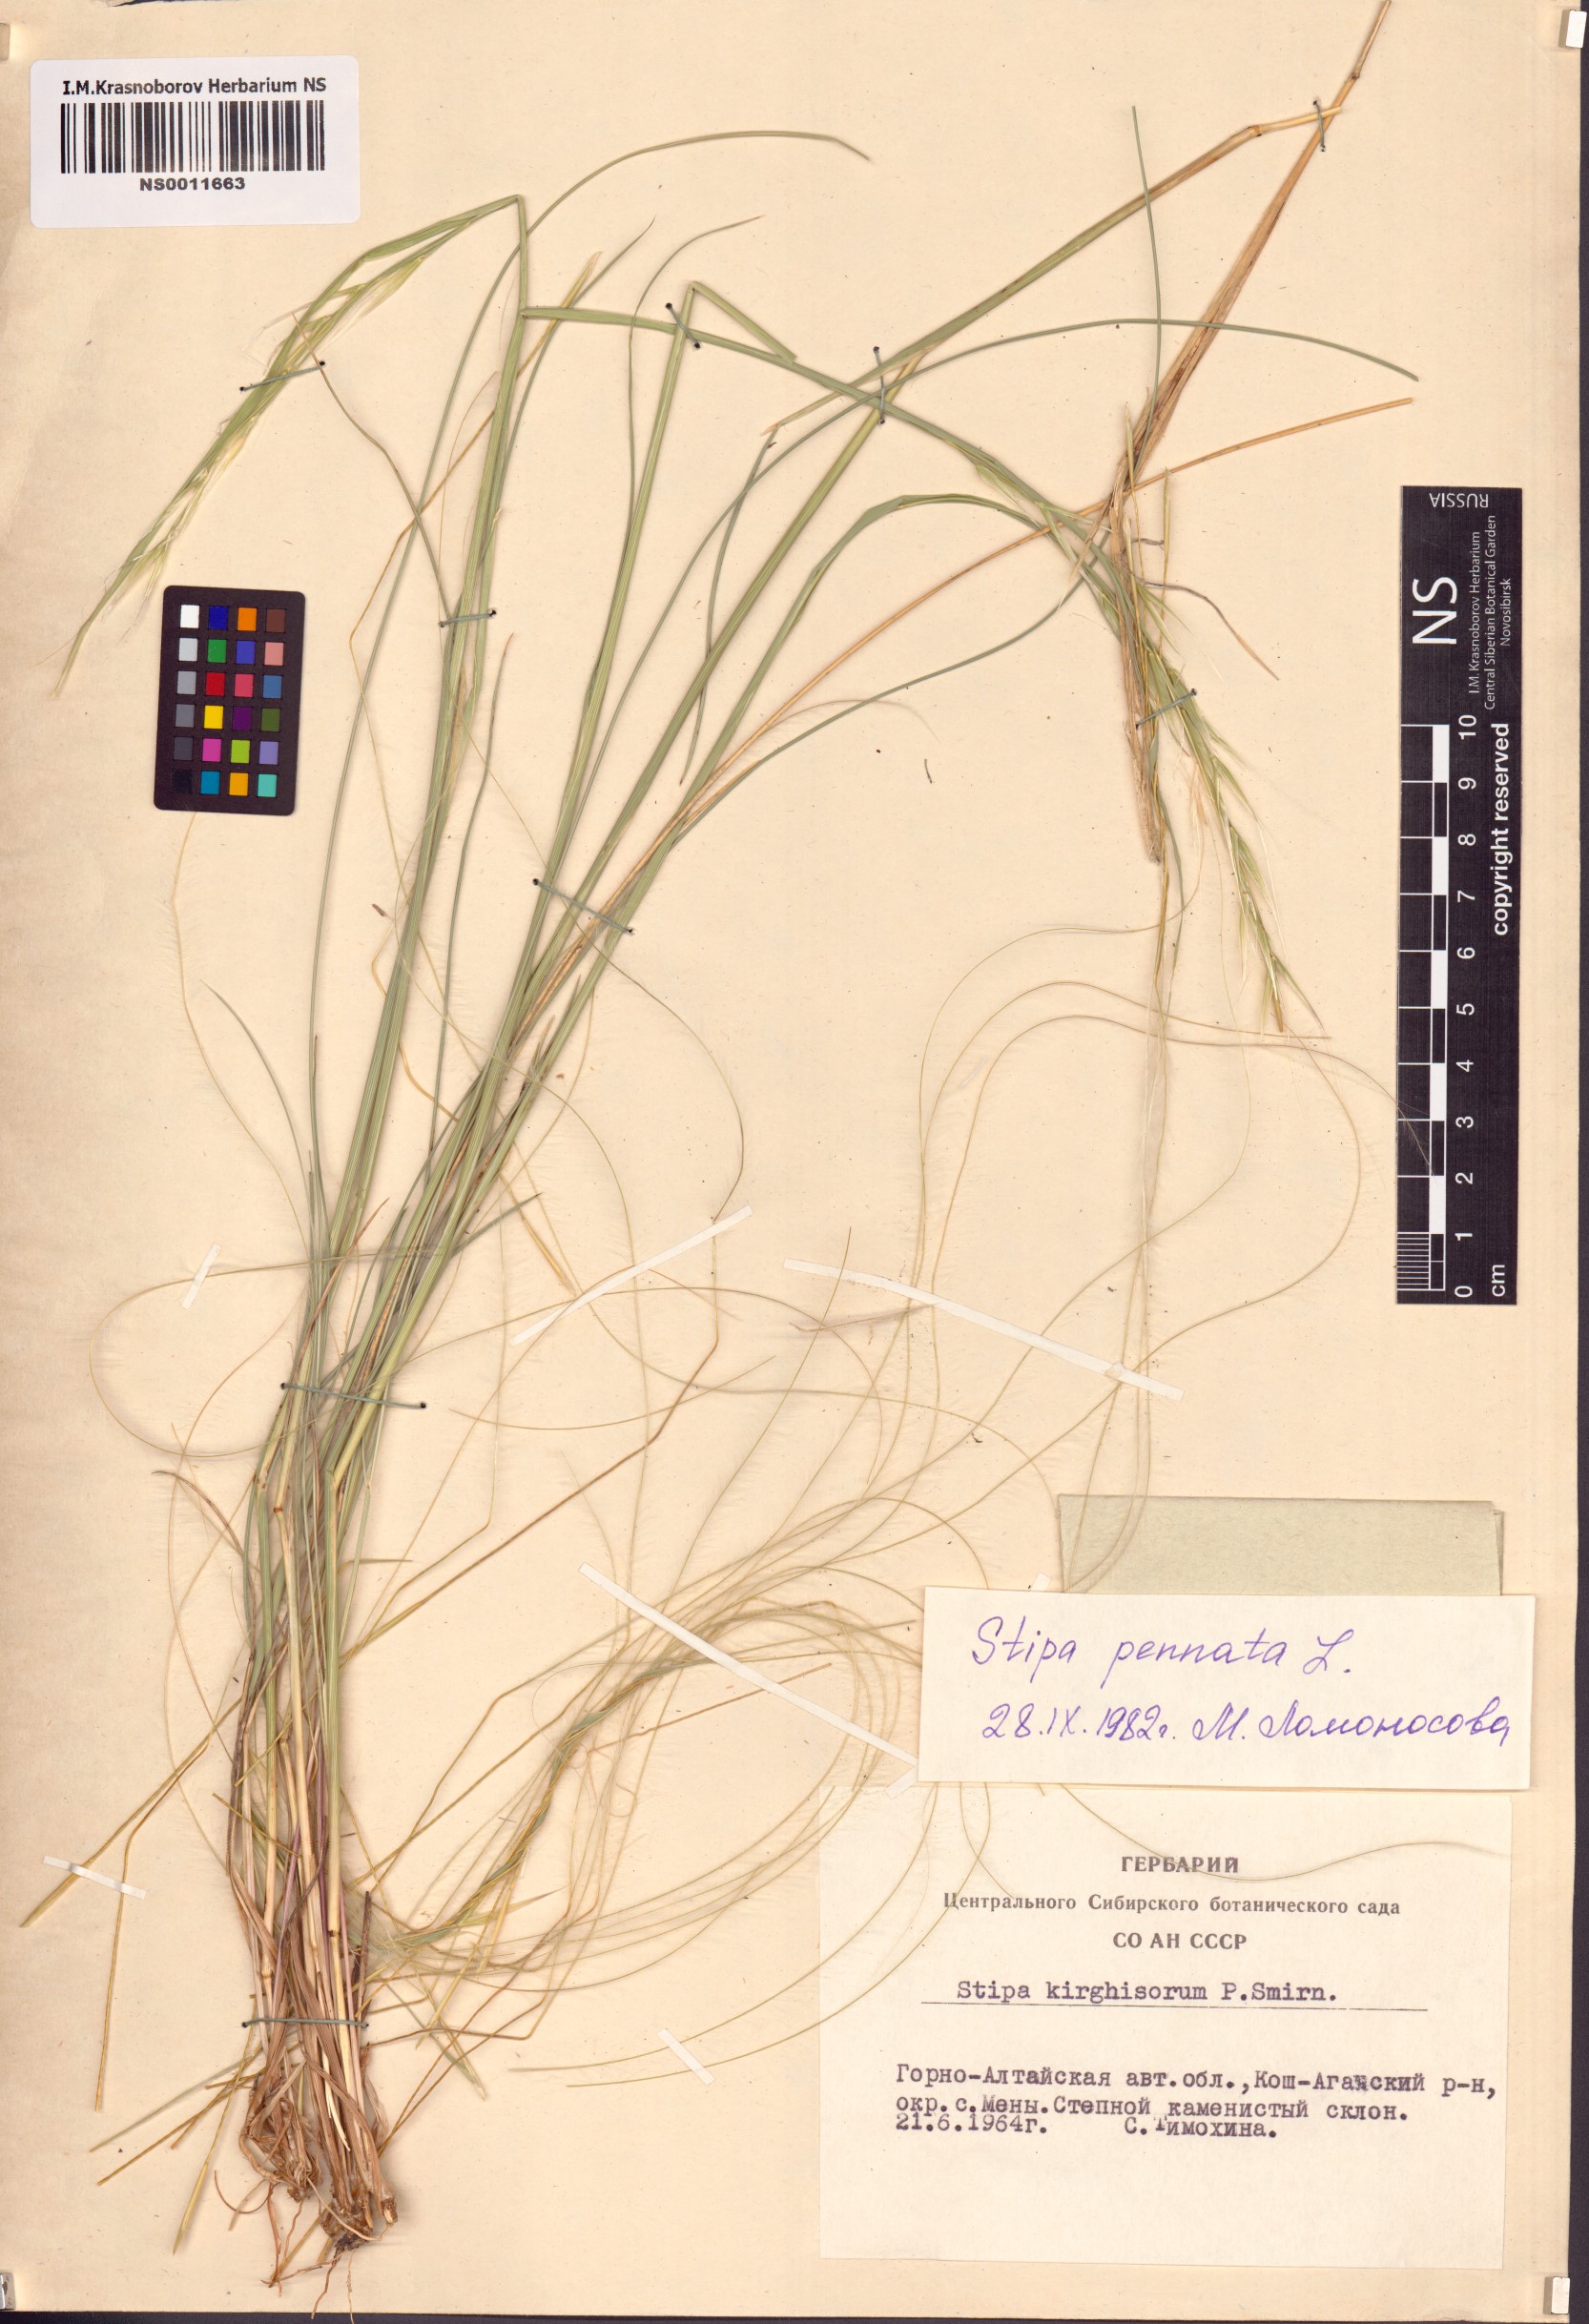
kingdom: Plantae
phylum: Tracheophyta
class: Liliopsida
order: Poales
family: Poaceae
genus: Stipa
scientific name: Stipa pennata
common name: European feather grass
